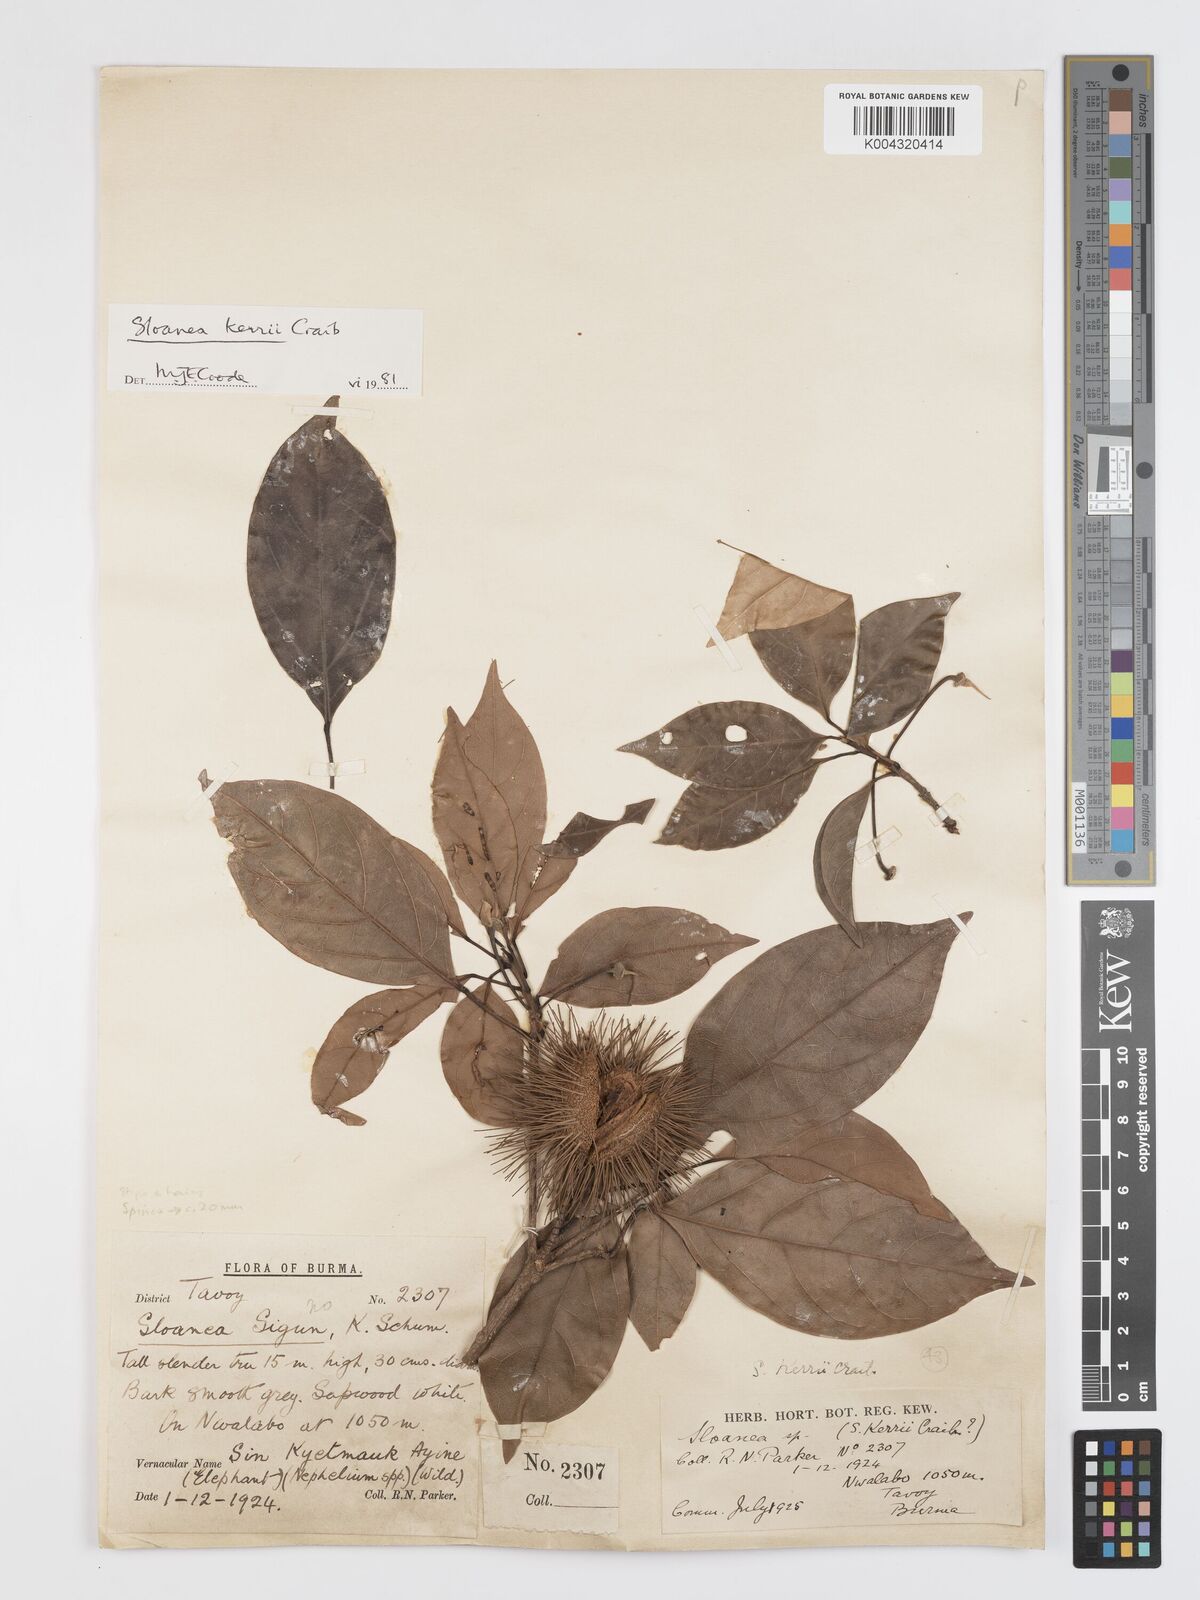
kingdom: Plantae
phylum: Tracheophyta
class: Magnoliopsida
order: Oxalidales
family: Elaeocarpaceae
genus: Sloanea
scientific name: Sloanea sigun
